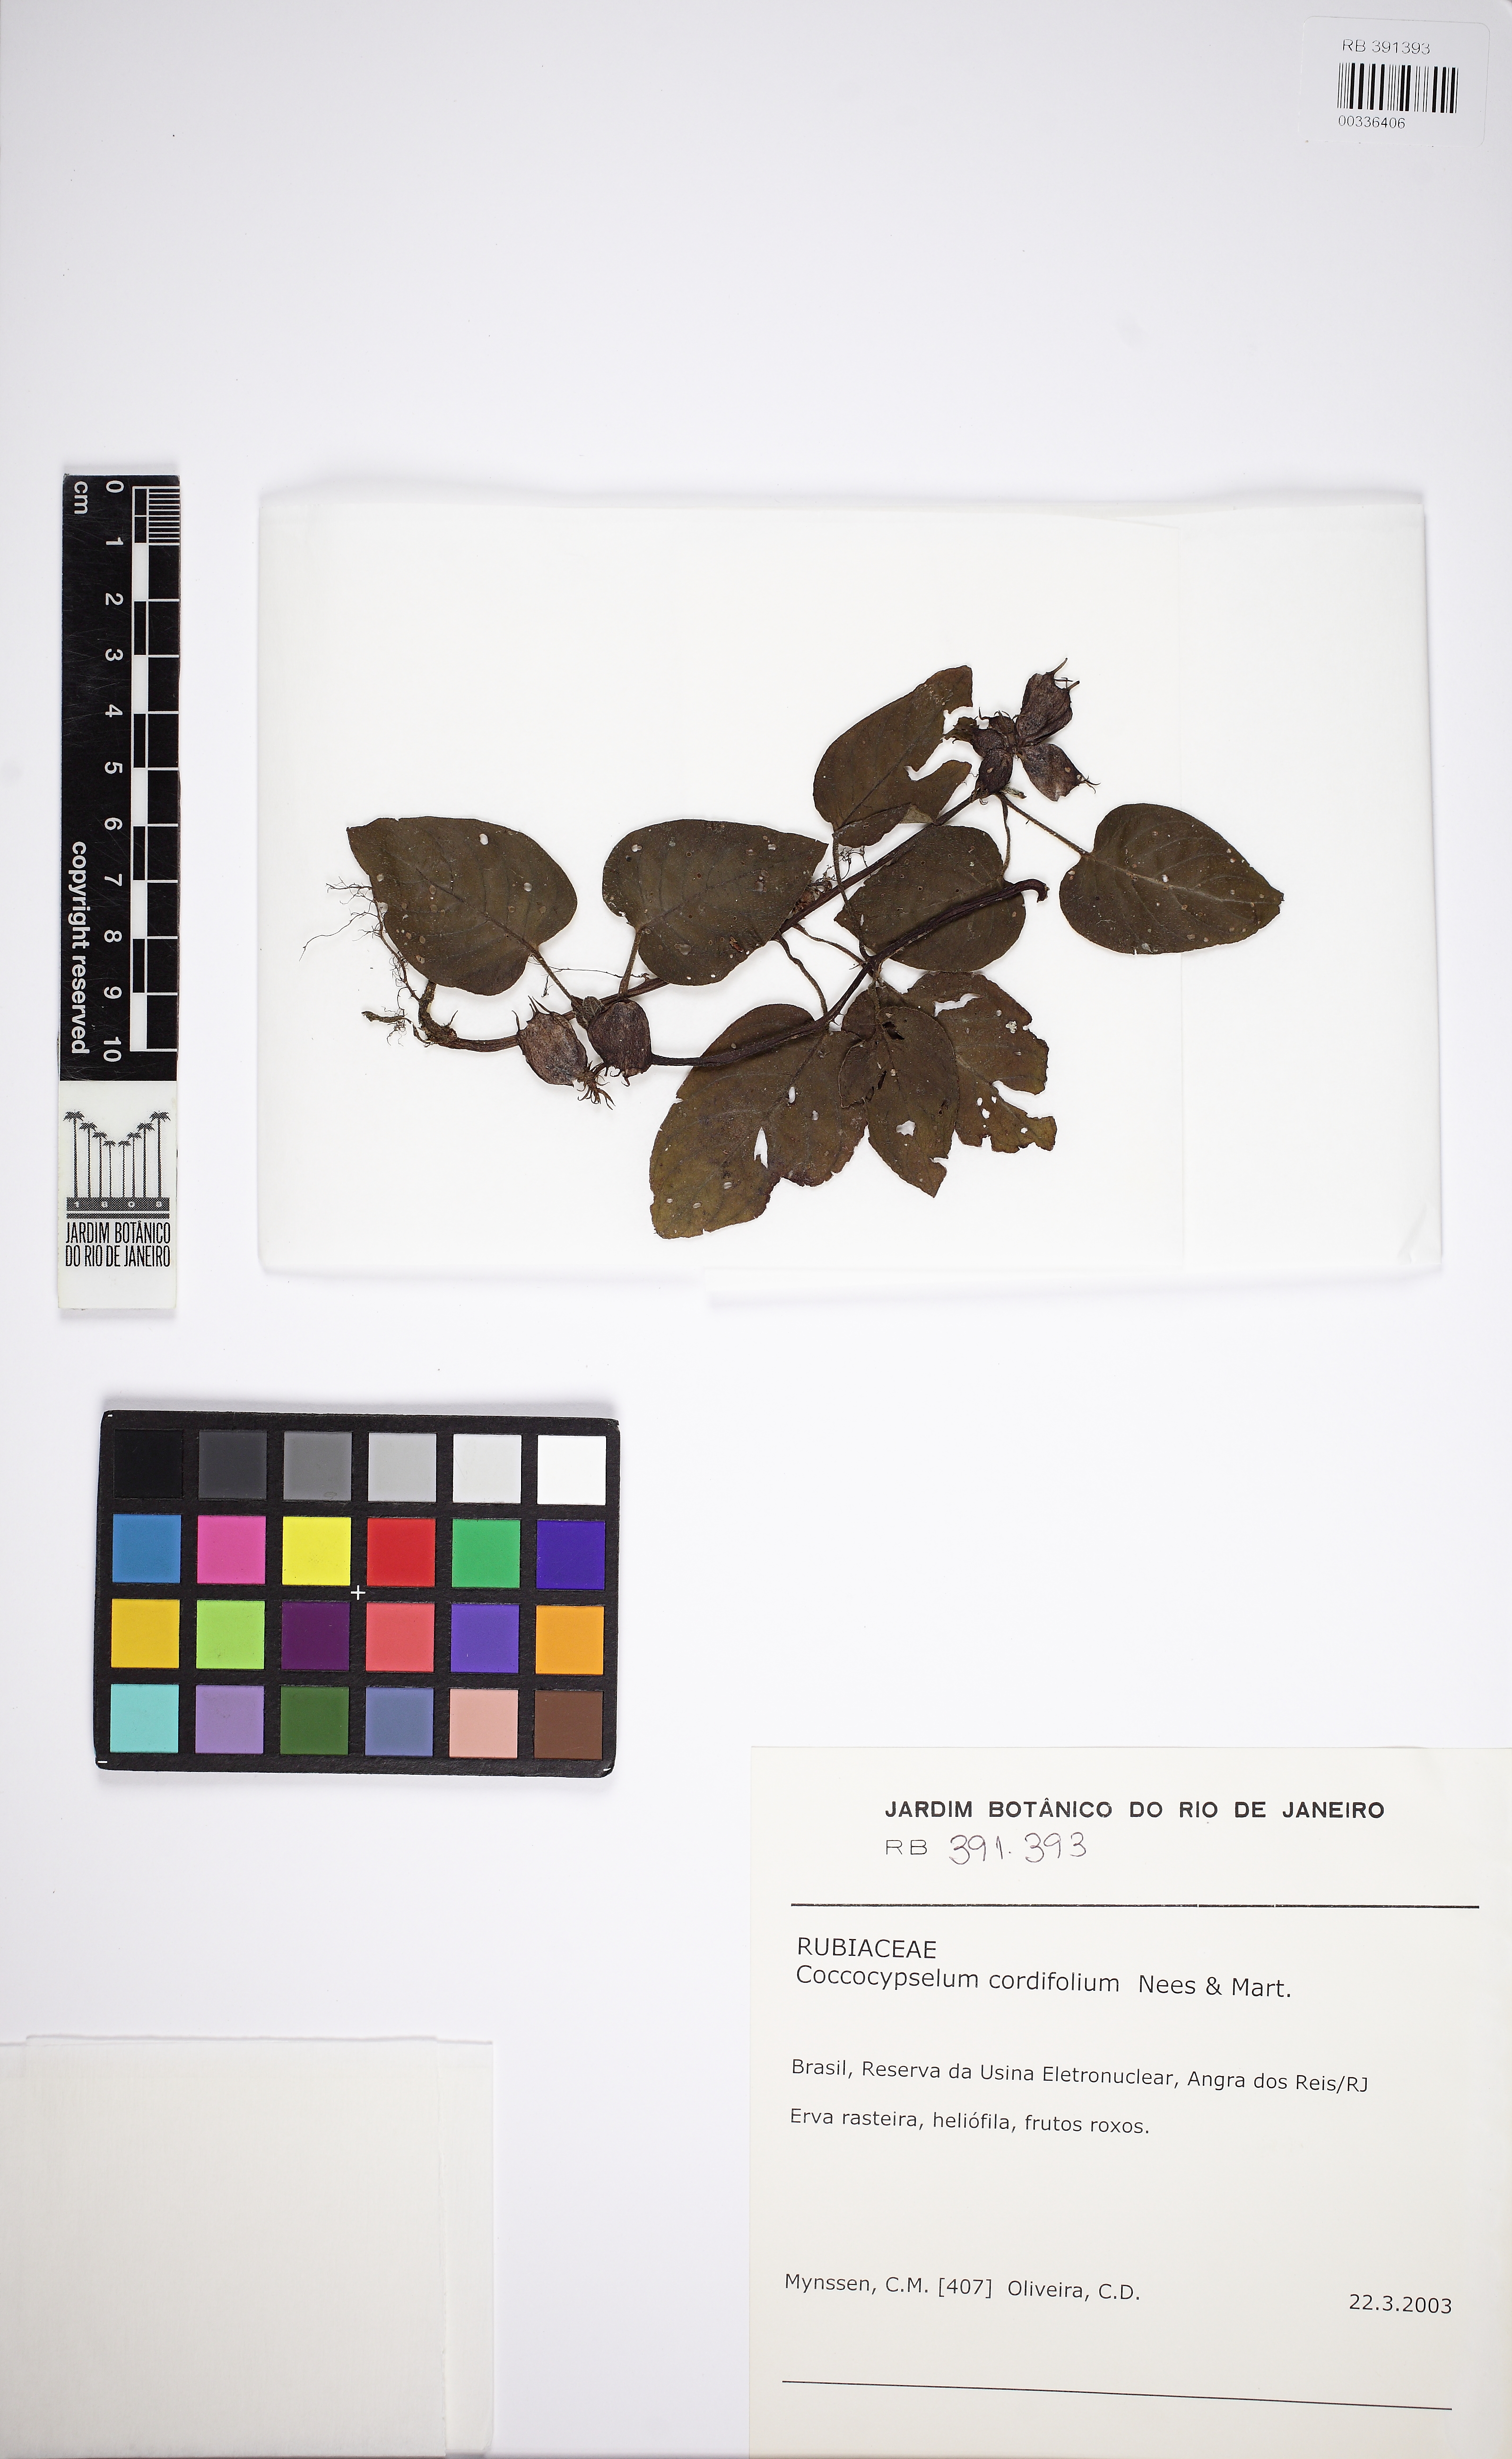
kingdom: Plantae
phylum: Tracheophyta
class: Magnoliopsida
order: Gentianales
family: Rubiaceae
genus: Coccocypselum
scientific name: Coccocypselum cordifolium
